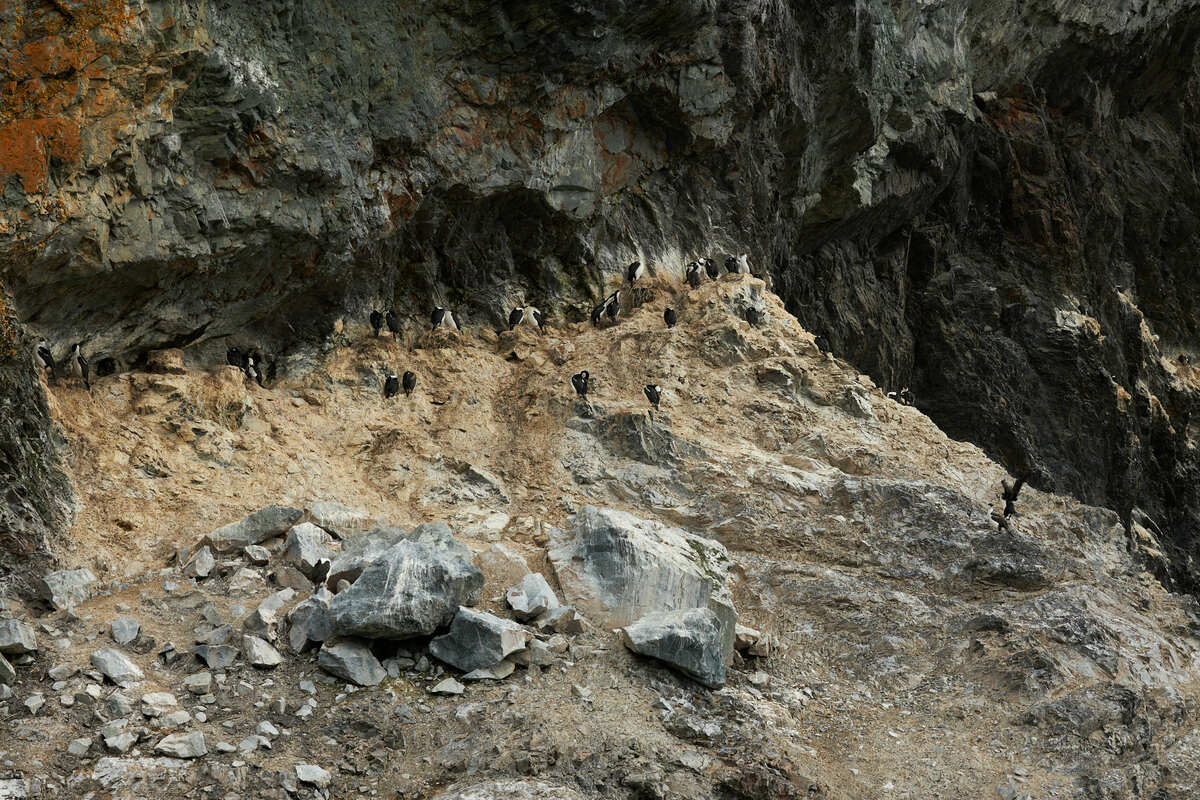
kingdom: Animalia
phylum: Chordata
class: Aves
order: Suliformes
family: Phalacrocoracidae
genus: Leucocarbo
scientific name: Leucocarbo atriceps
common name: Antarctic shag
